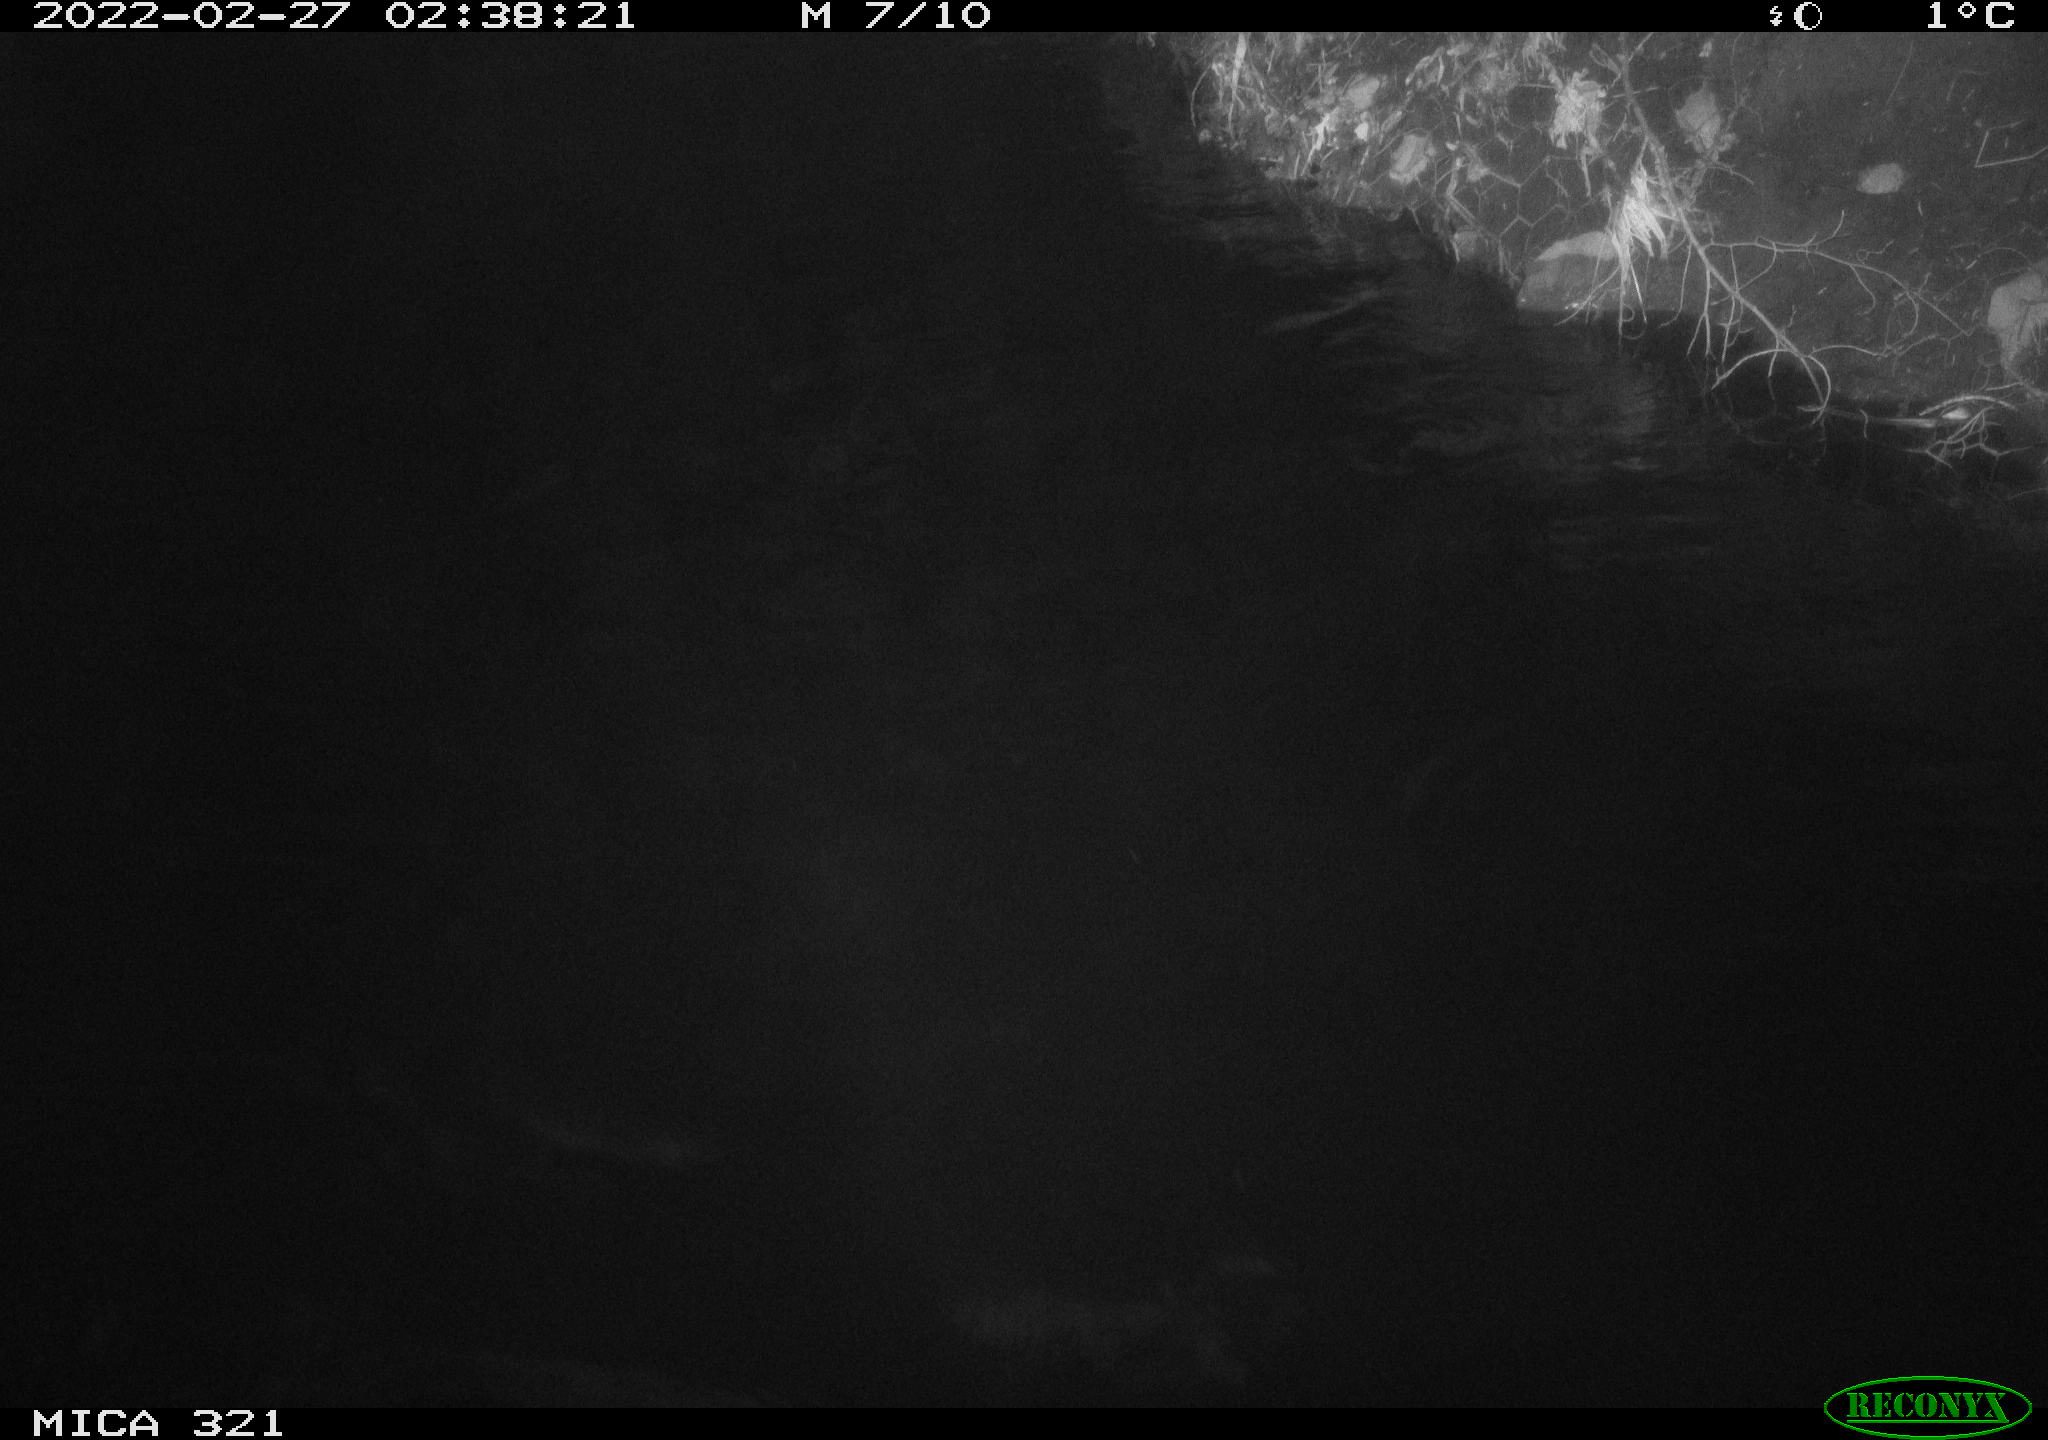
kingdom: Animalia
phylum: Chordata
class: Aves
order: Anseriformes
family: Anatidae
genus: Anas
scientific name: Anas platyrhynchos
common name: Mallard
